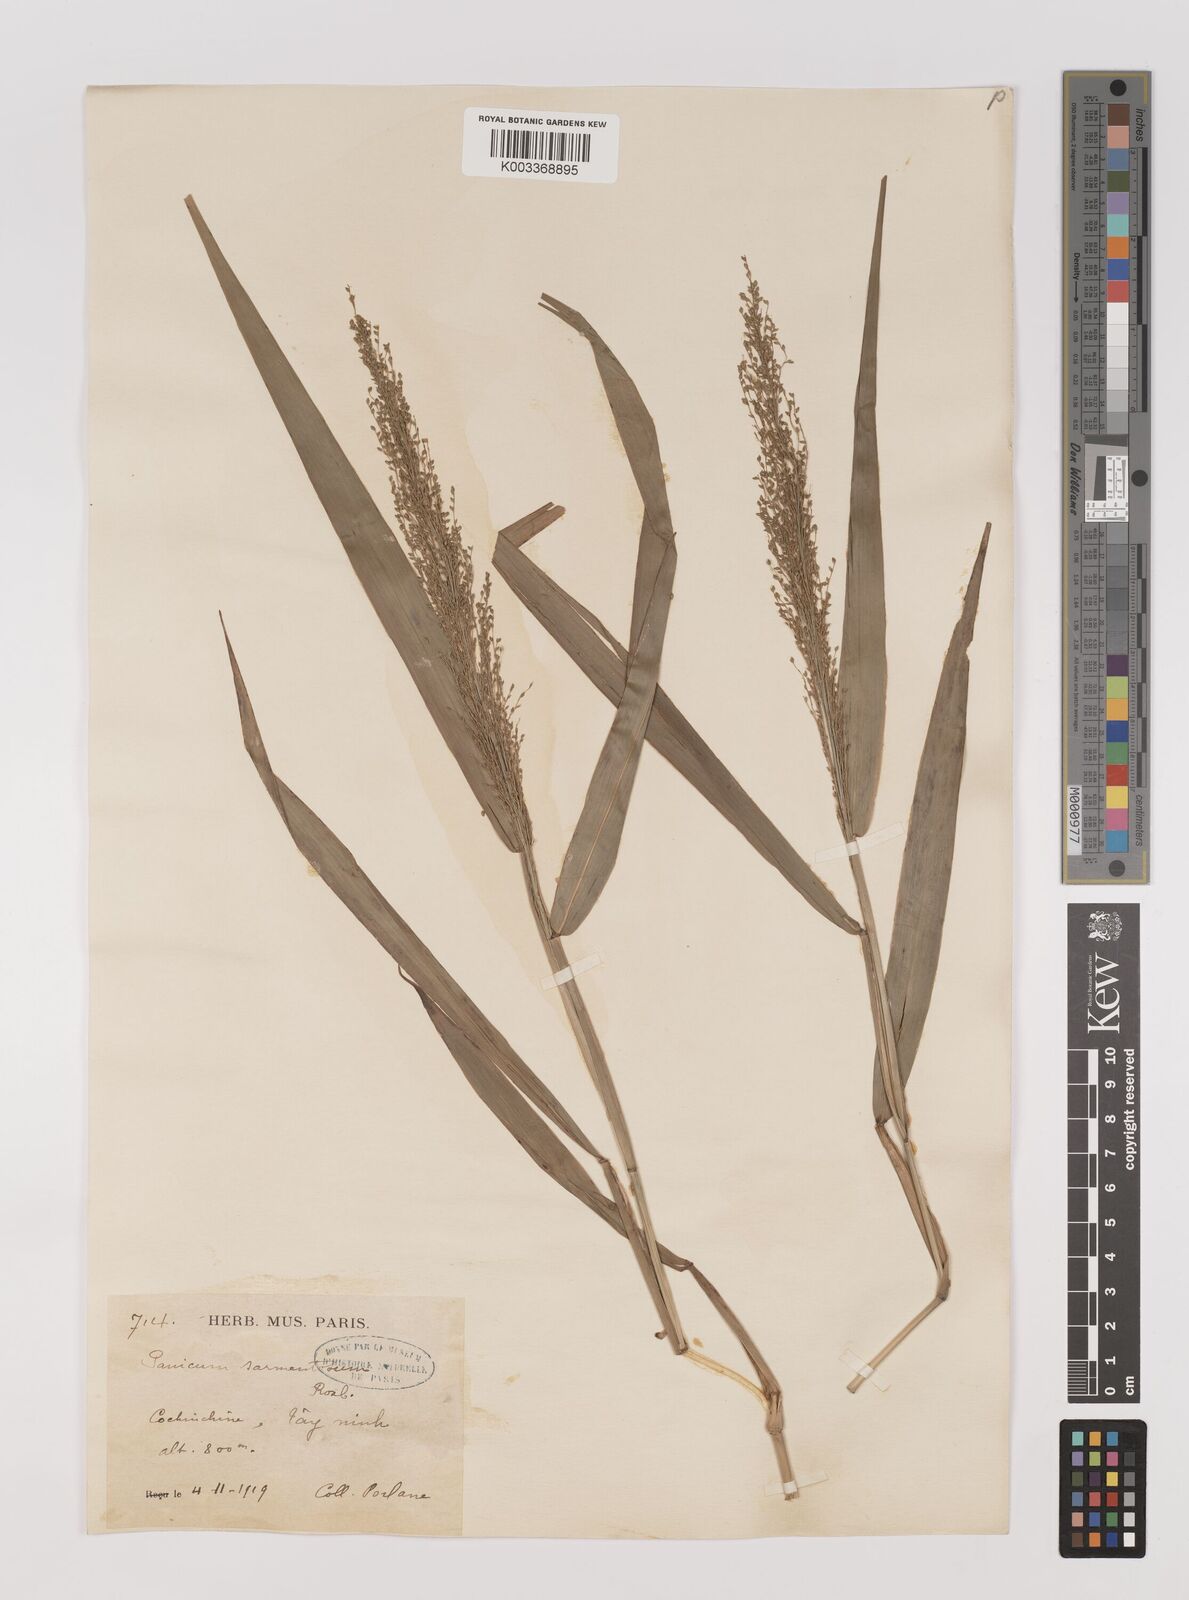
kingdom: Plantae
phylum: Tracheophyta
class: Liliopsida
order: Poales
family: Poaceae
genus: Panicum
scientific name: Panicum sarmentosum
